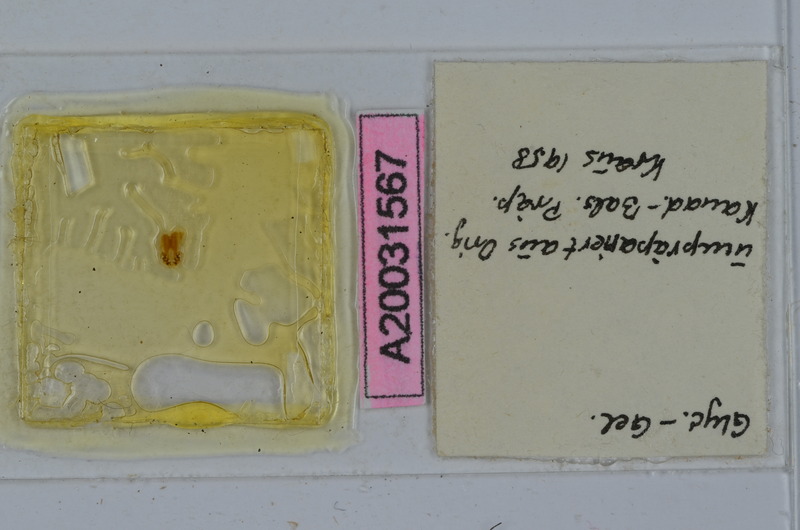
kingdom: Animalia
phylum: Arthropoda
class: Diplopoda
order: Spirostreptida
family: Spirostreptidae
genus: Nanostreptus
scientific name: Nanostreptus armatus
